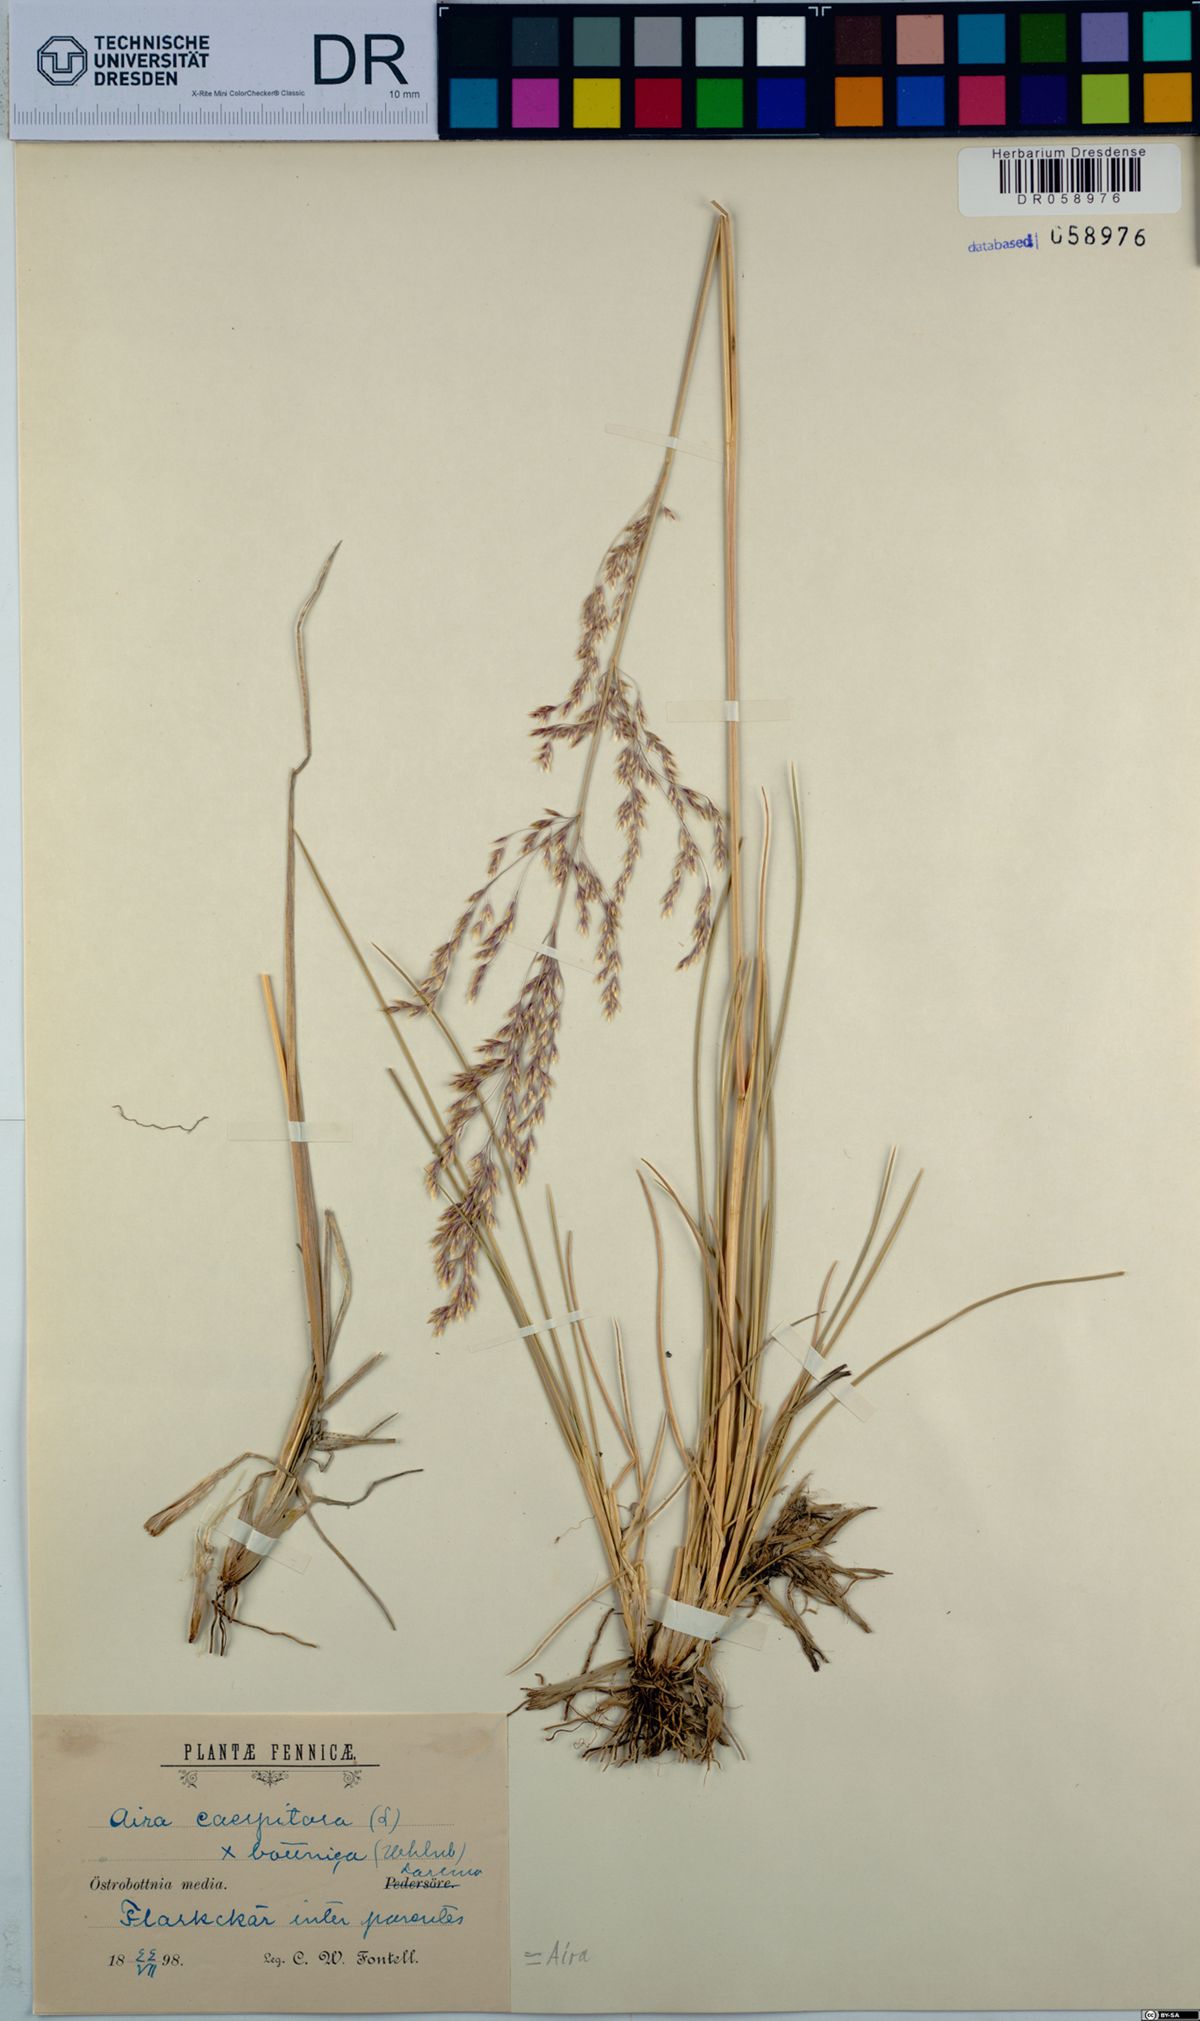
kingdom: Plantae
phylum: Tracheophyta
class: Liliopsida
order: Poales
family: Poaceae
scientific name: Poaceae
